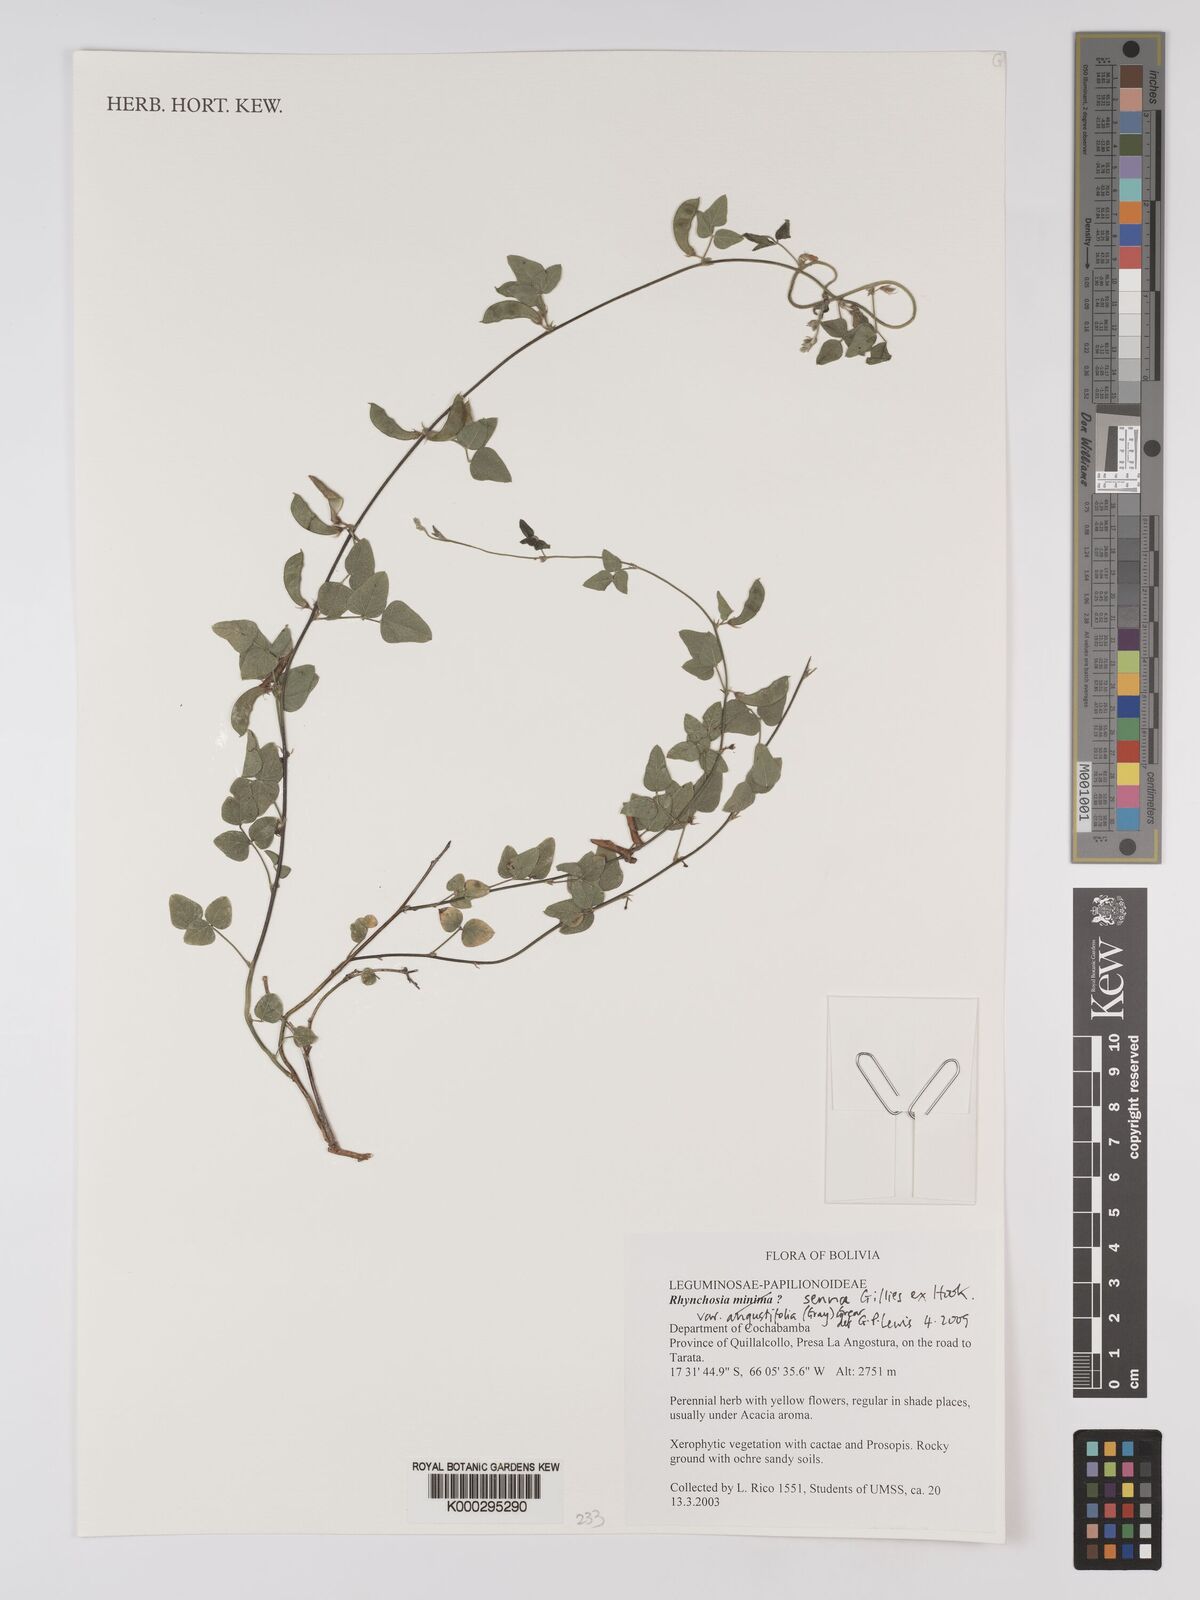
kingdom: Plantae
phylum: Tracheophyta
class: Magnoliopsida
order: Fabales
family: Fabaceae
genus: Rhynchosia
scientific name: Rhynchosia minima
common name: Least snoutbean
